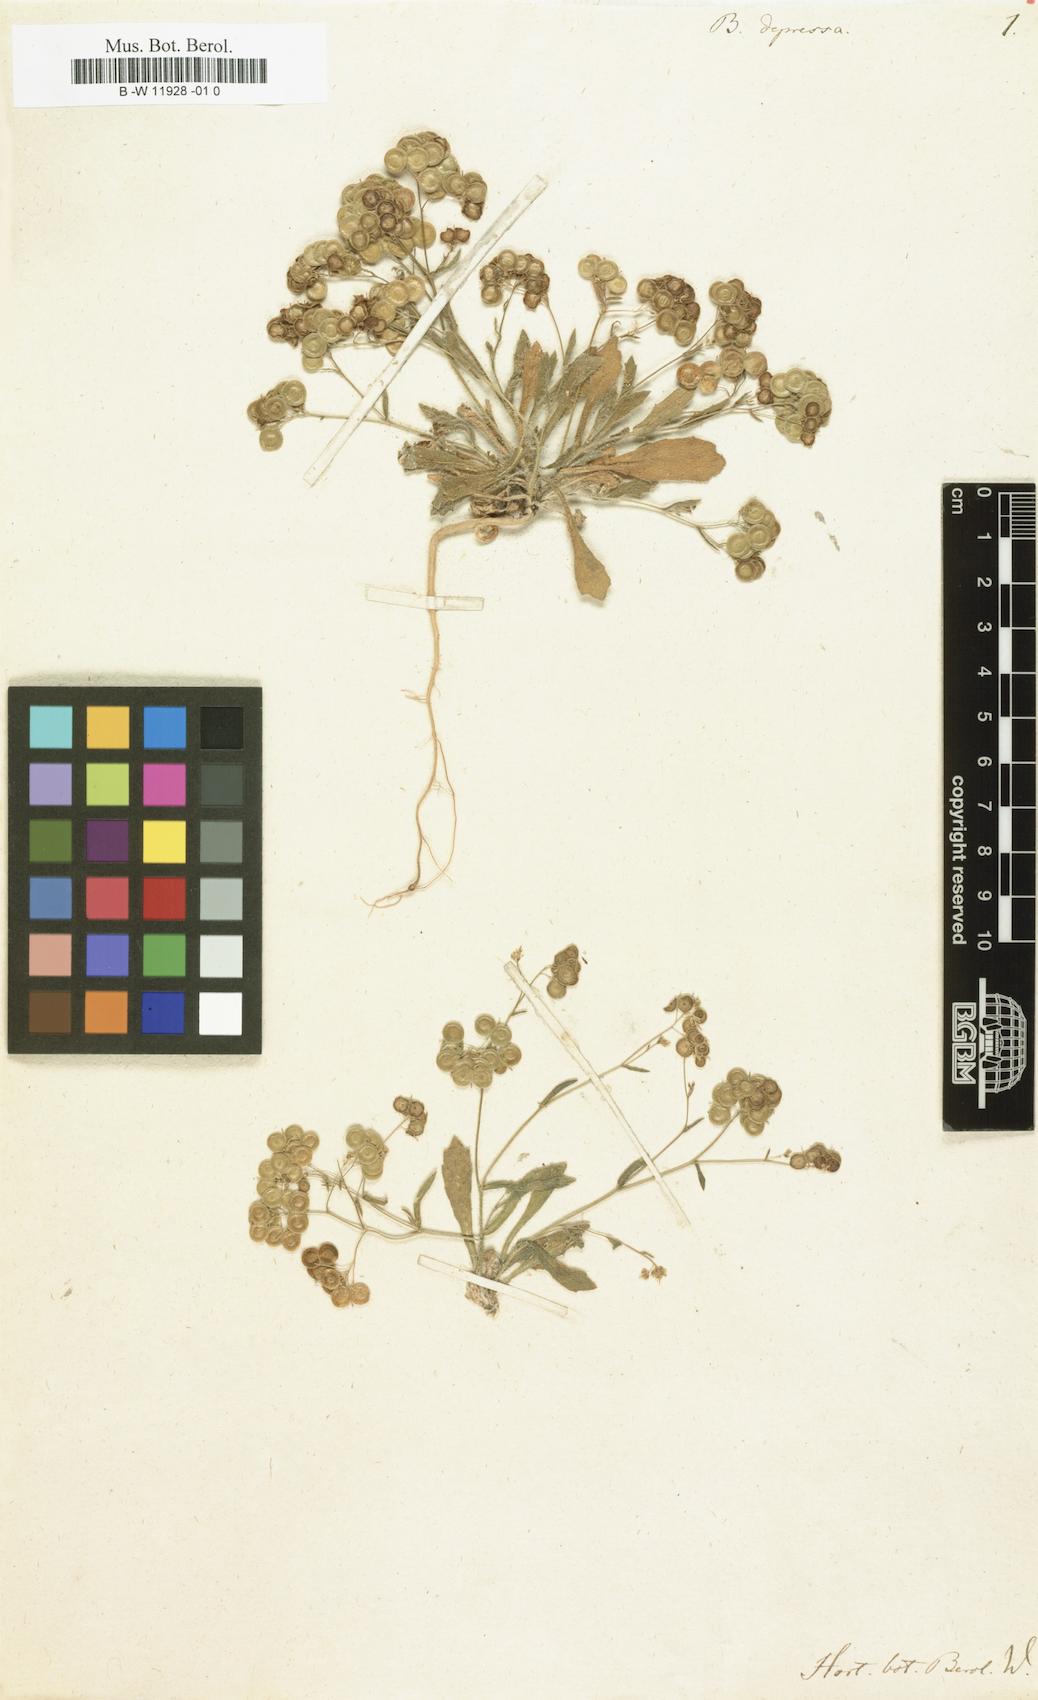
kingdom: Plantae
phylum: Tracheophyta
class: Magnoliopsida
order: Brassicales
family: Brassicaceae
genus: Biscutella
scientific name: Biscutella laevigata
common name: Buckler mustard
